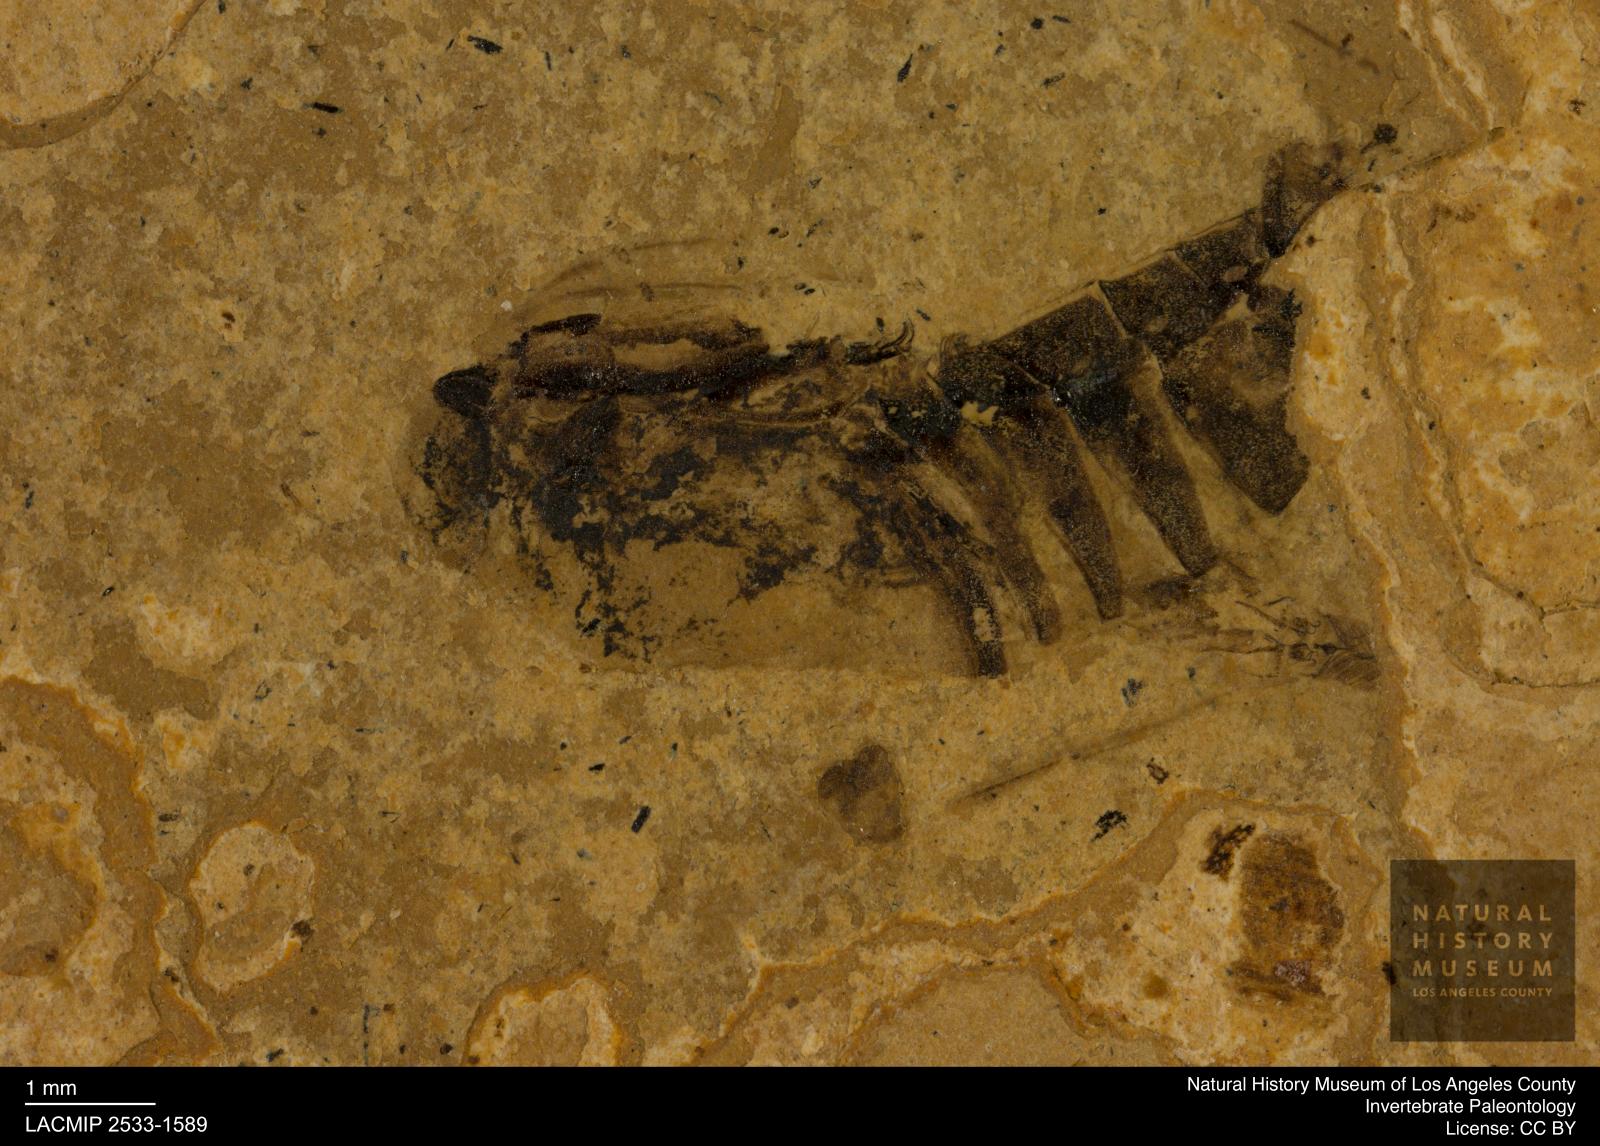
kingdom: Animalia
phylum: Arthropoda
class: Insecta
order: Hemiptera
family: Notonectidae
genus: Notonecta
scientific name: Notonecta
